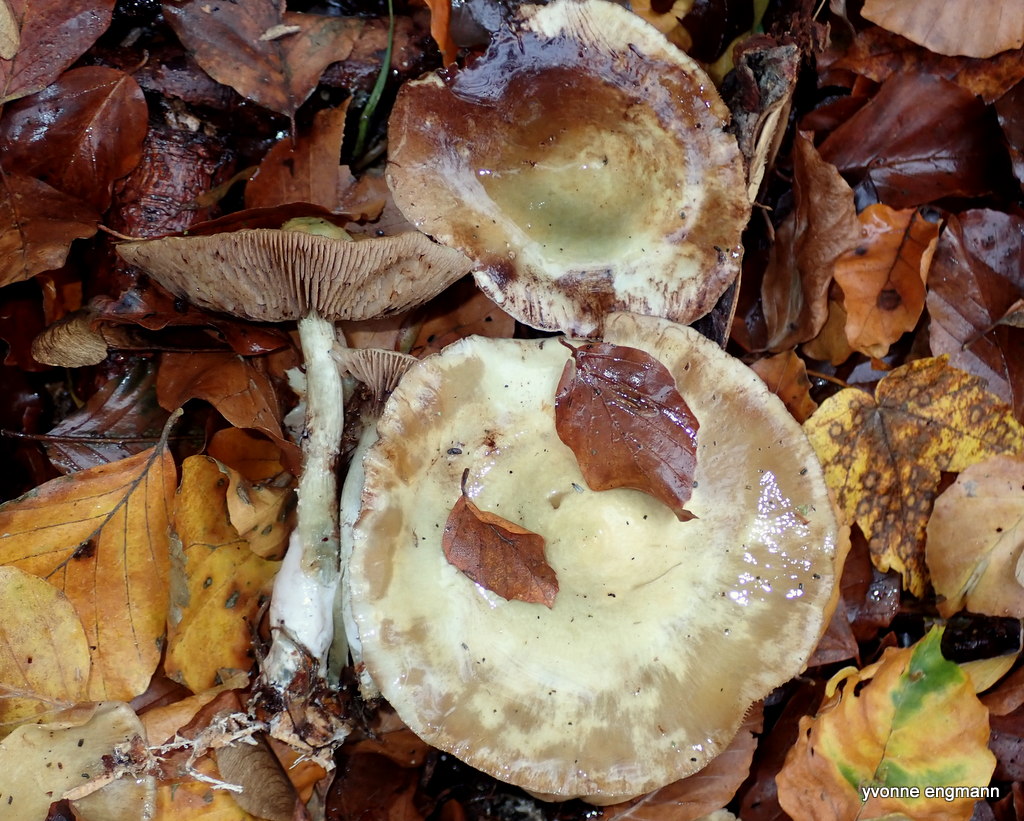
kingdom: Fungi
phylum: Basidiomycota
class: Agaricomycetes
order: Agaricales
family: Strophariaceae
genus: Stropharia
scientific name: Stropharia
